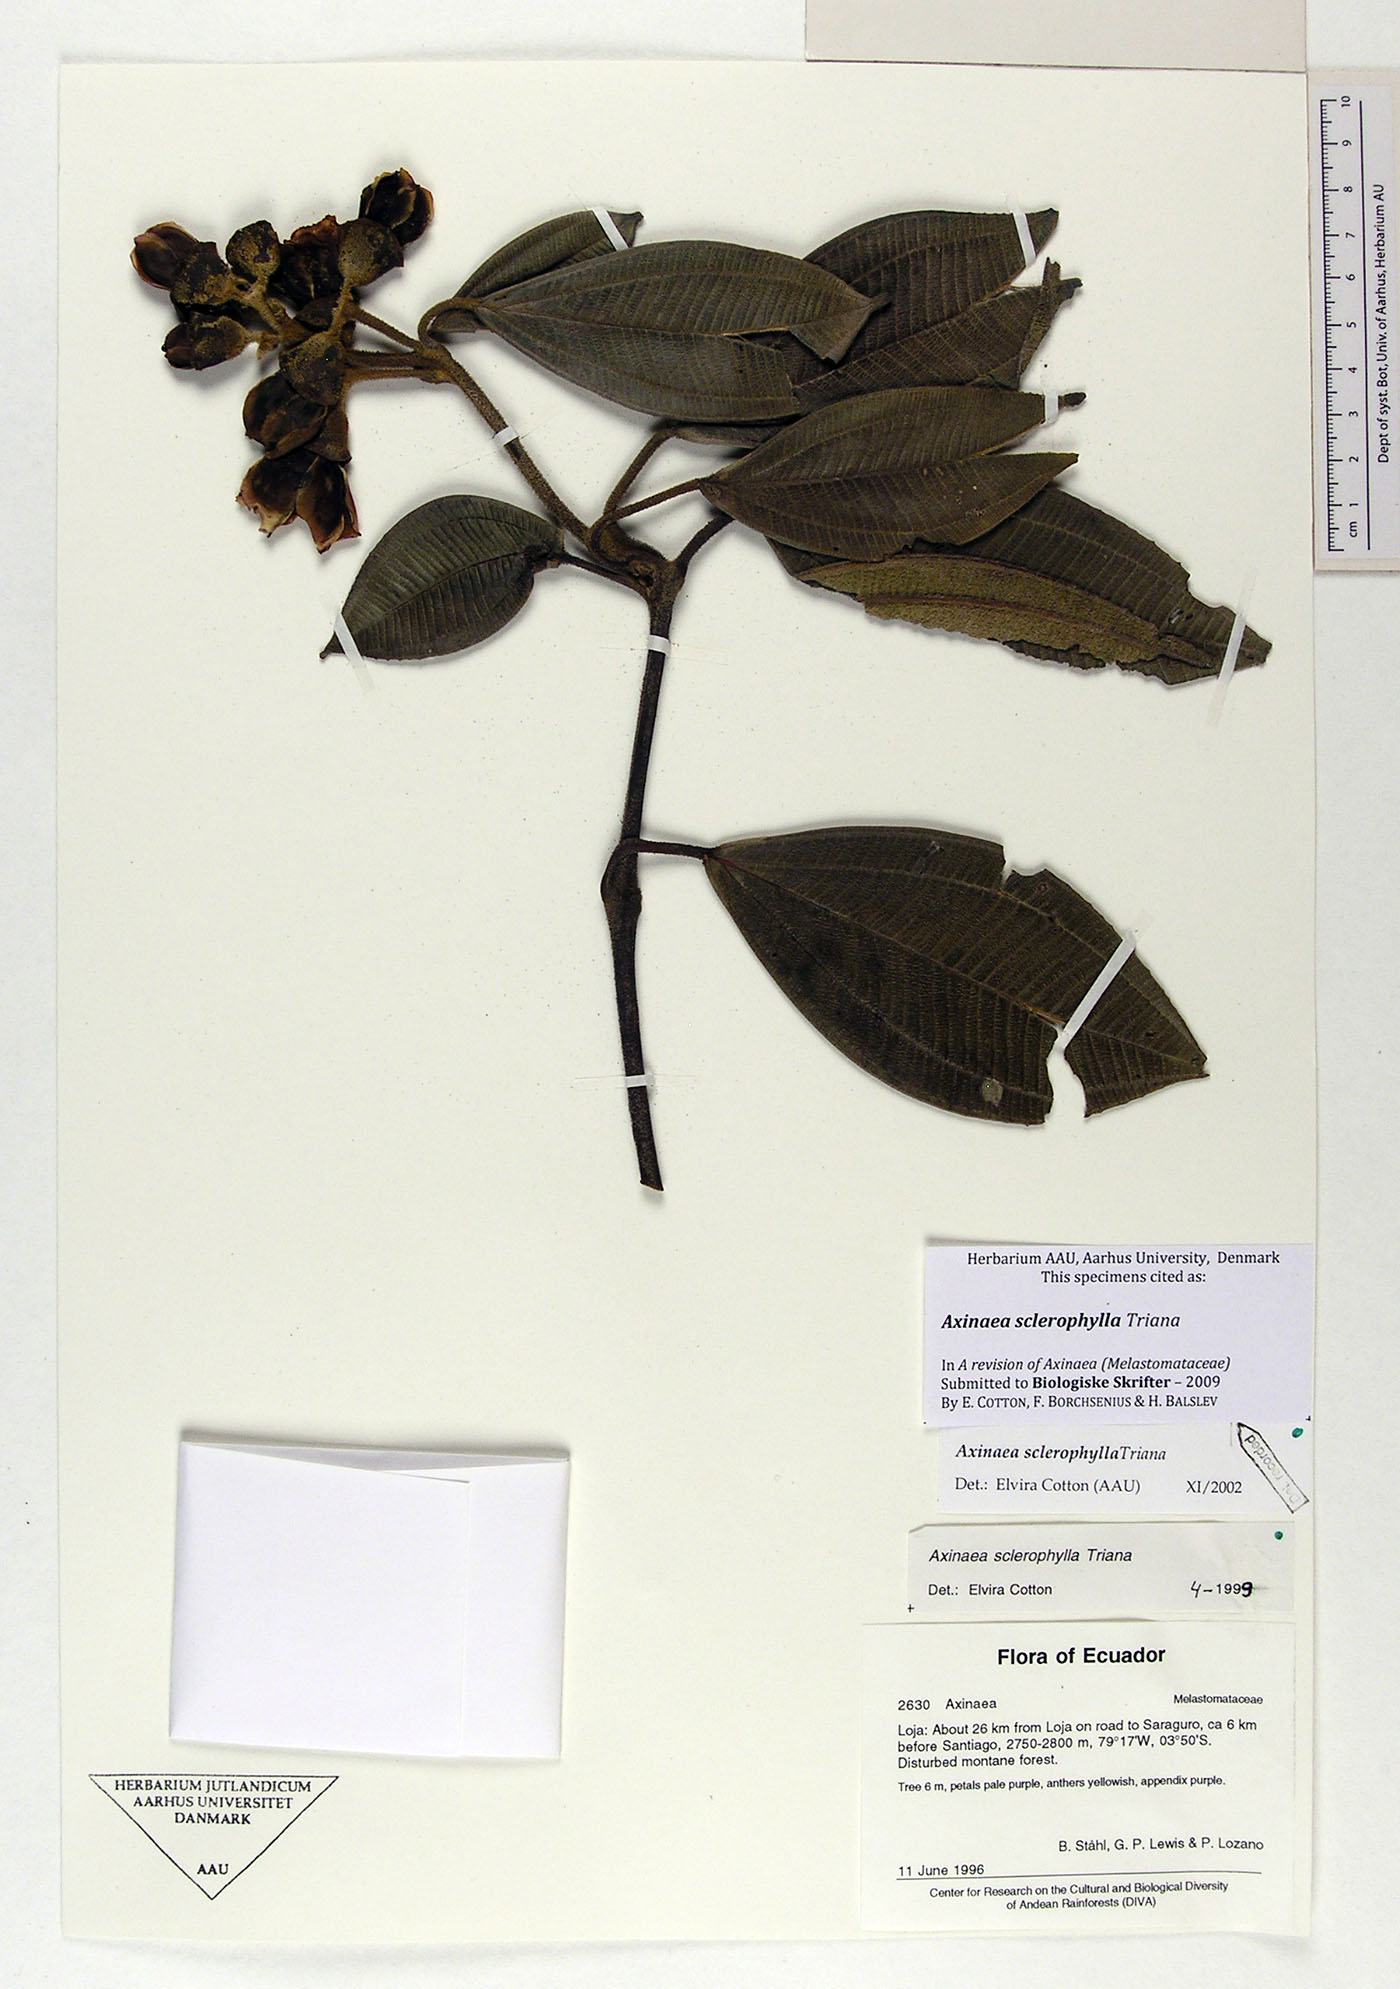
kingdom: Plantae
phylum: Tracheophyta
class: Magnoliopsida
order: Myrtales
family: Melastomataceae
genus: Axinaea
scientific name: Axinaea sclerophylla
